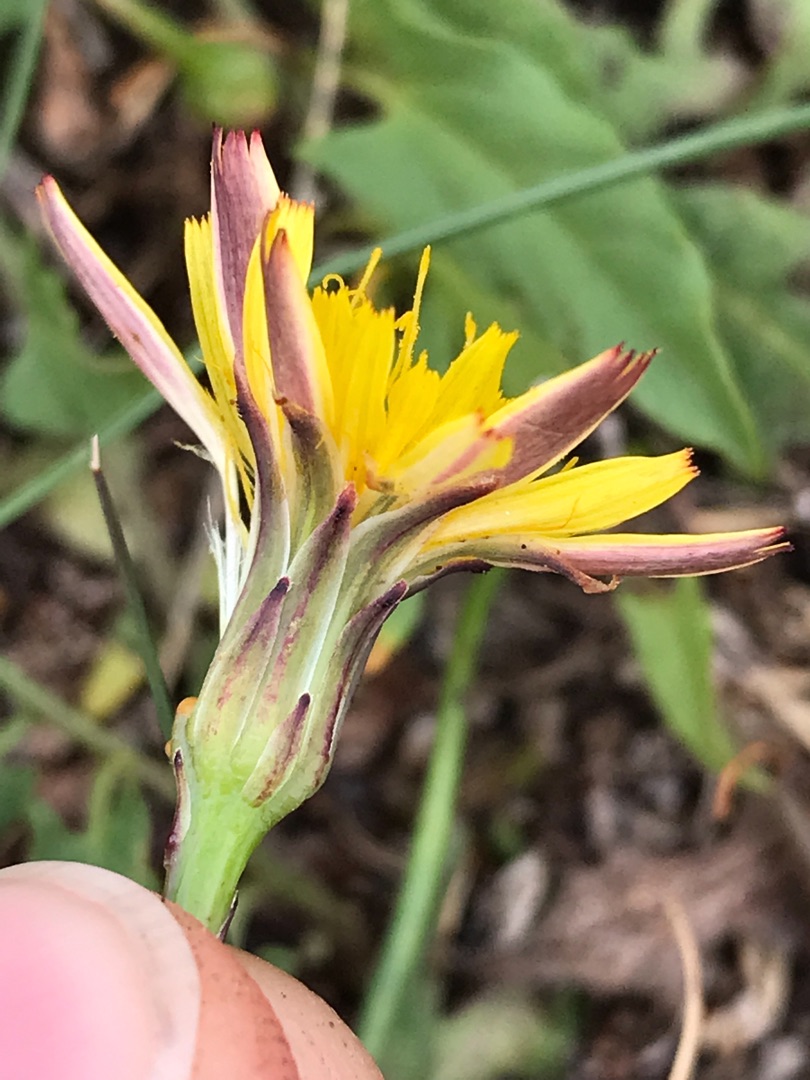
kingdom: Plantae
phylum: Tracheophyta
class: Magnoliopsida
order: Asterales
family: Asteraceae
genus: Hypochaeris
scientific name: Hypochaeris radicata
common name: Almindelig kongepen
